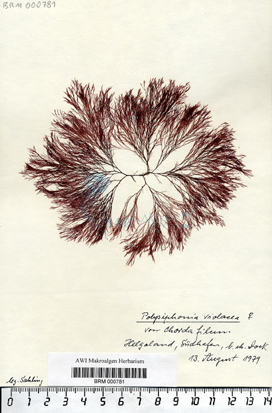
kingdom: Plantae
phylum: Rhodophyta
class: Florideophyceae
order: Ceramiales
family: Rhodomelaceae
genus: Vertebrata
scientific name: Vertebrata spec
